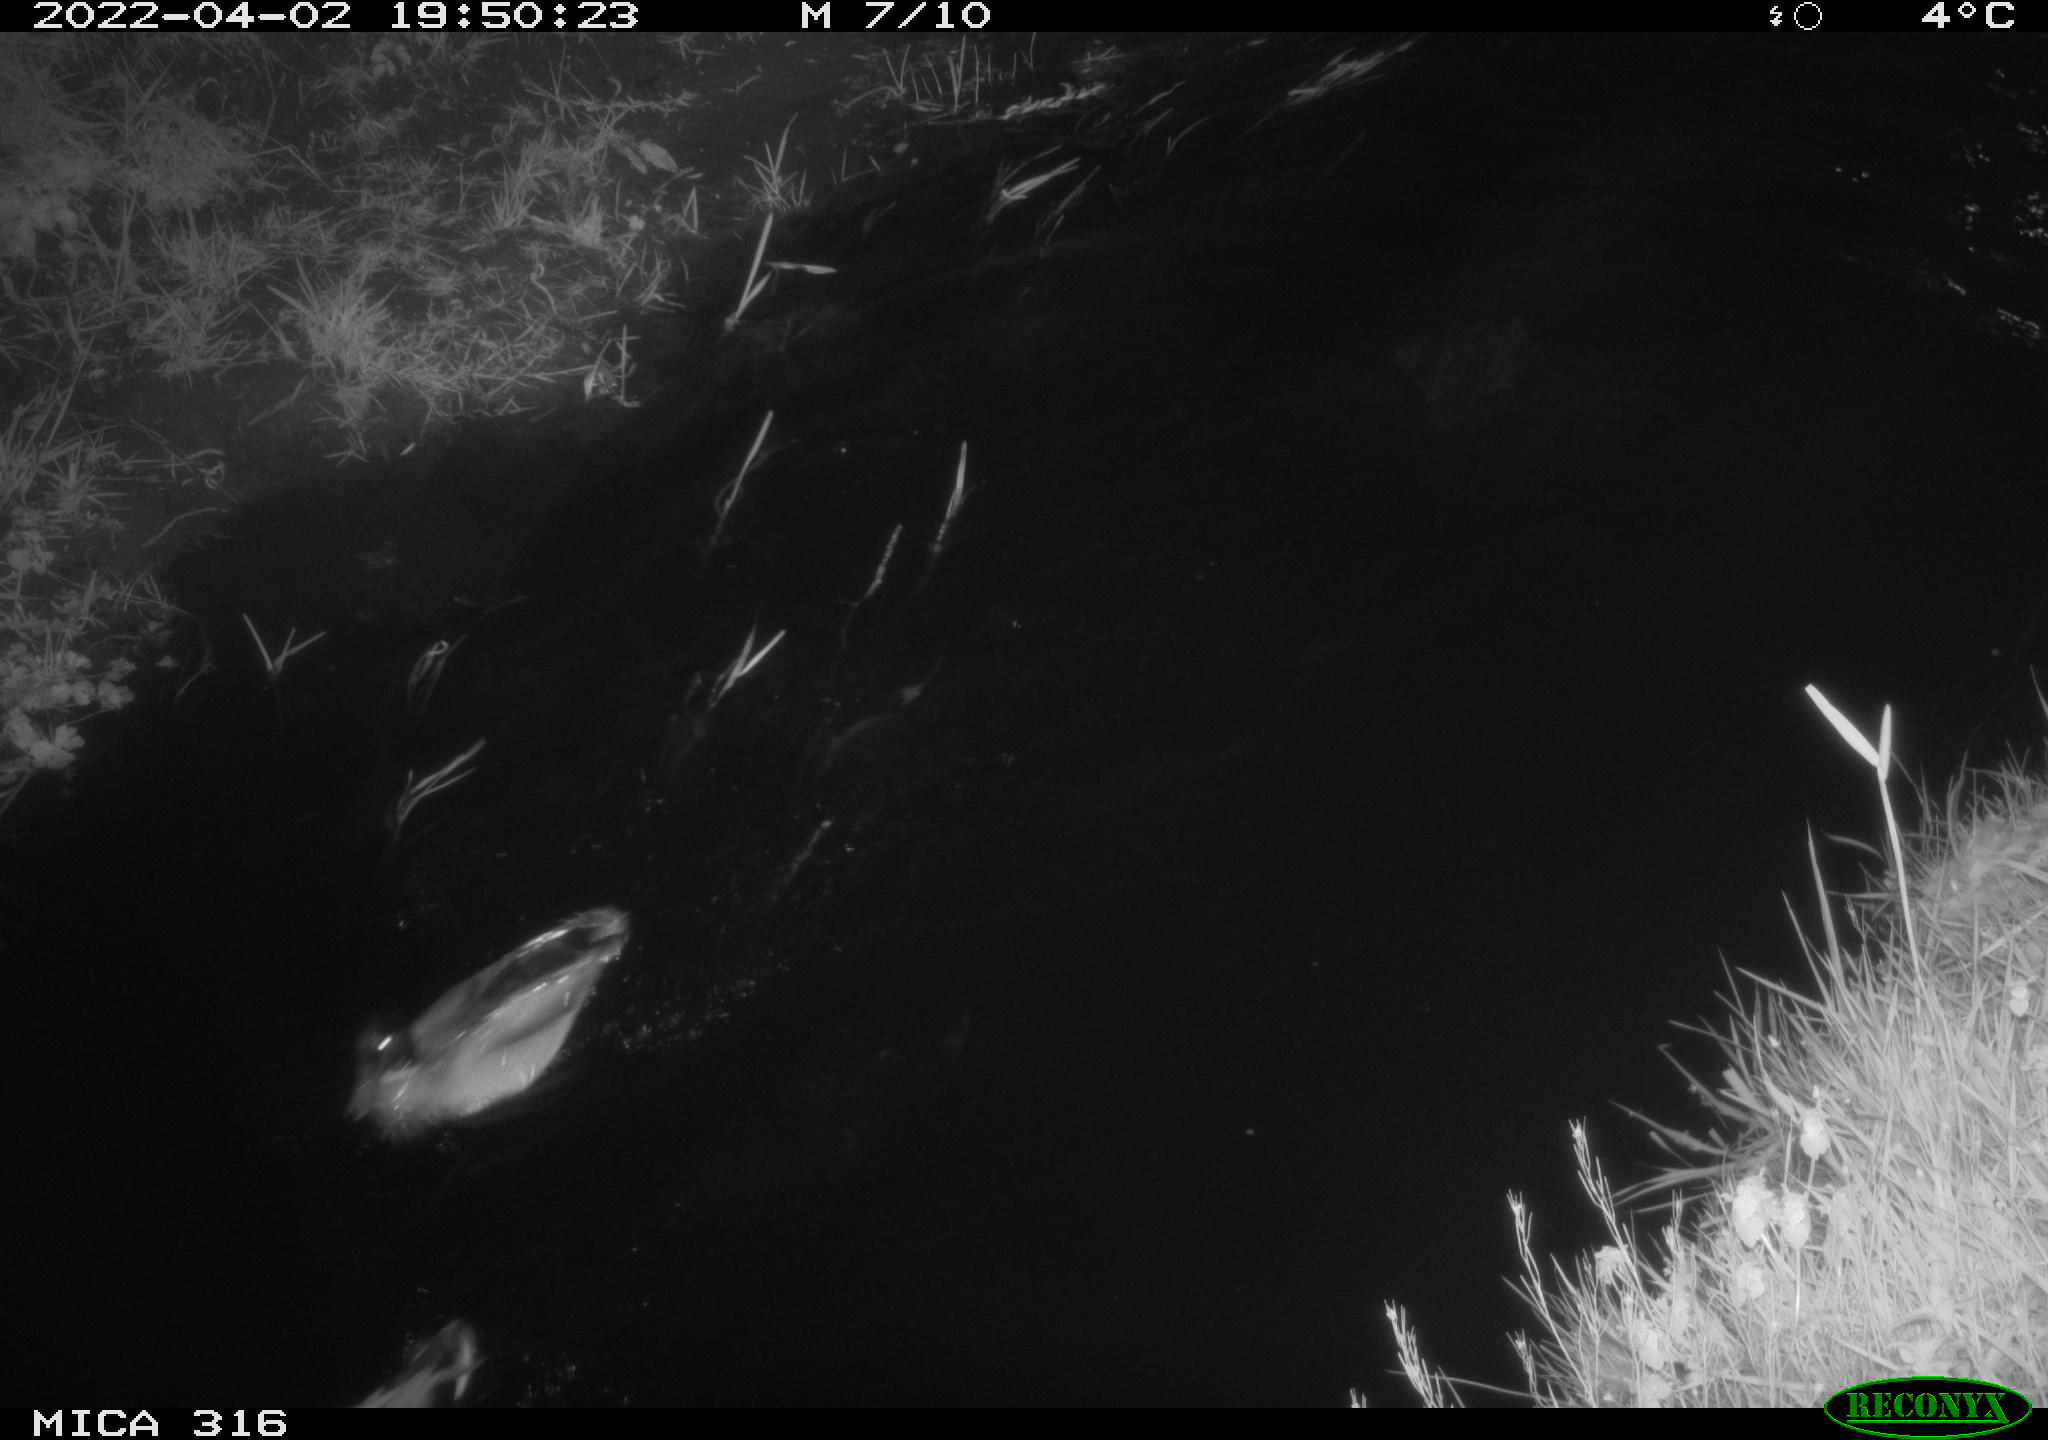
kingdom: Animalia
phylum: Chordata
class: Aves
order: Anseriformes
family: Anatidae
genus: Anas
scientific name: Anas platyrhynchos
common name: Mallard
